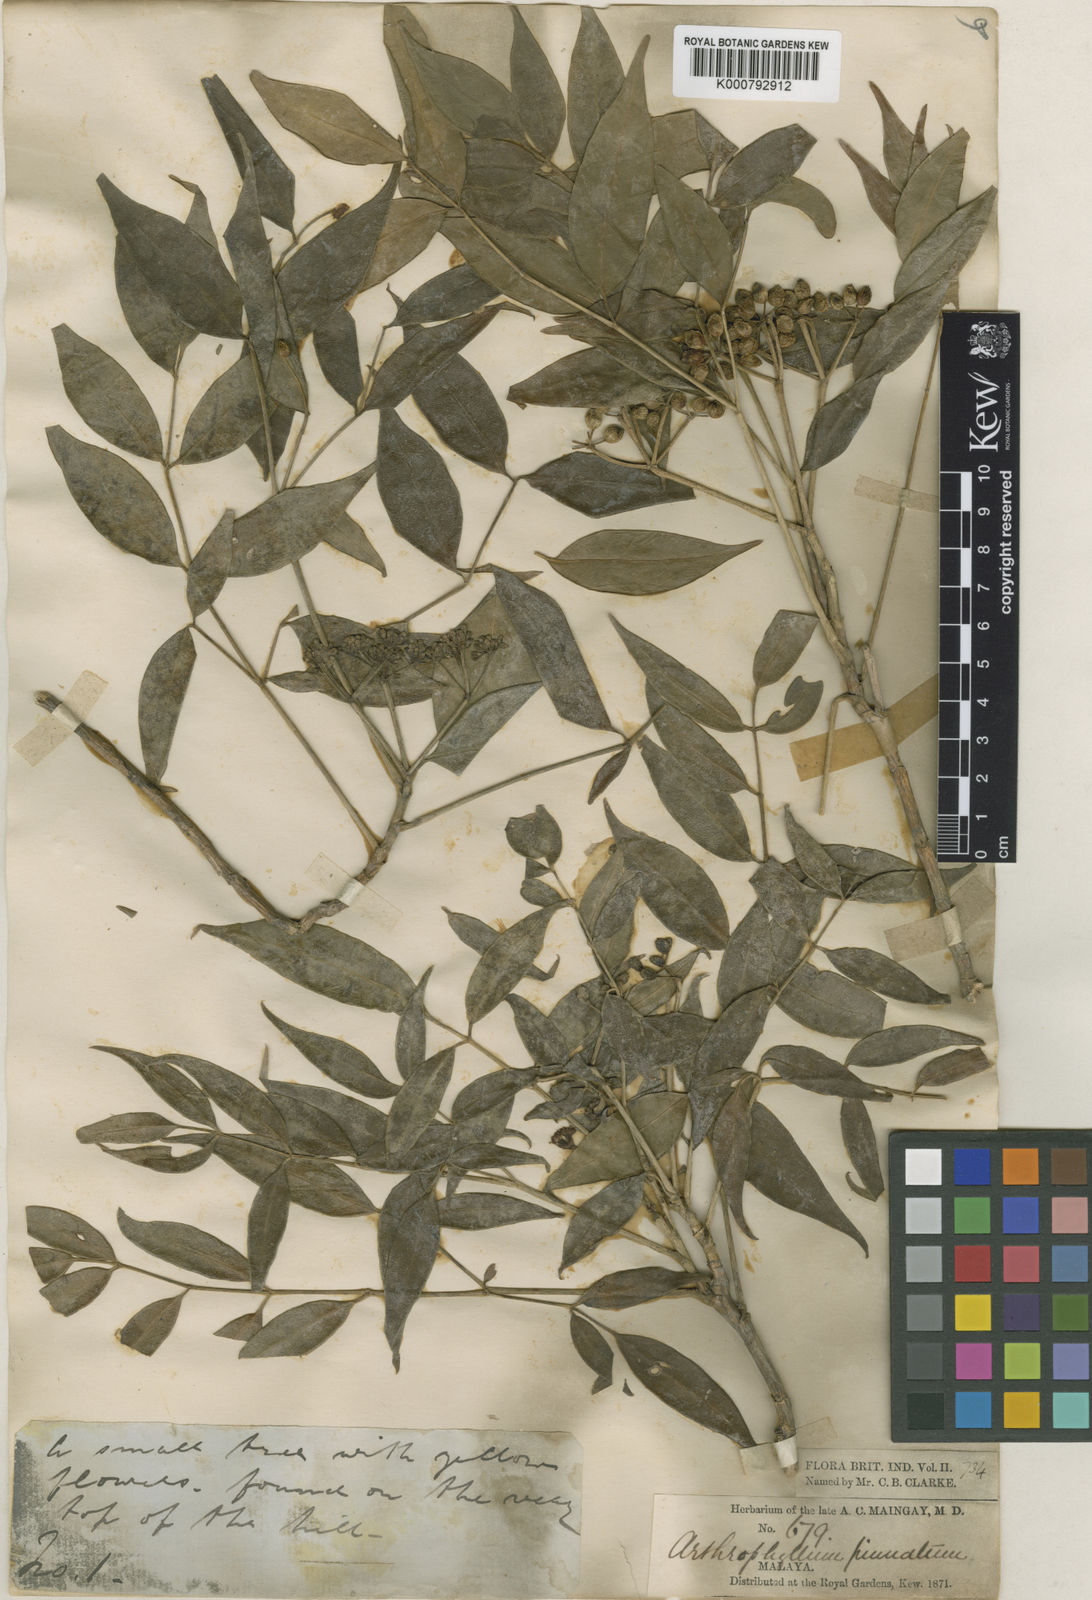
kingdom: Plantae
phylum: Tracheophyta
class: Magnoliopsida
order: Apiales
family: Araliaceae
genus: Polyscias
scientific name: Polyscias Arthrophyllum maingayi
